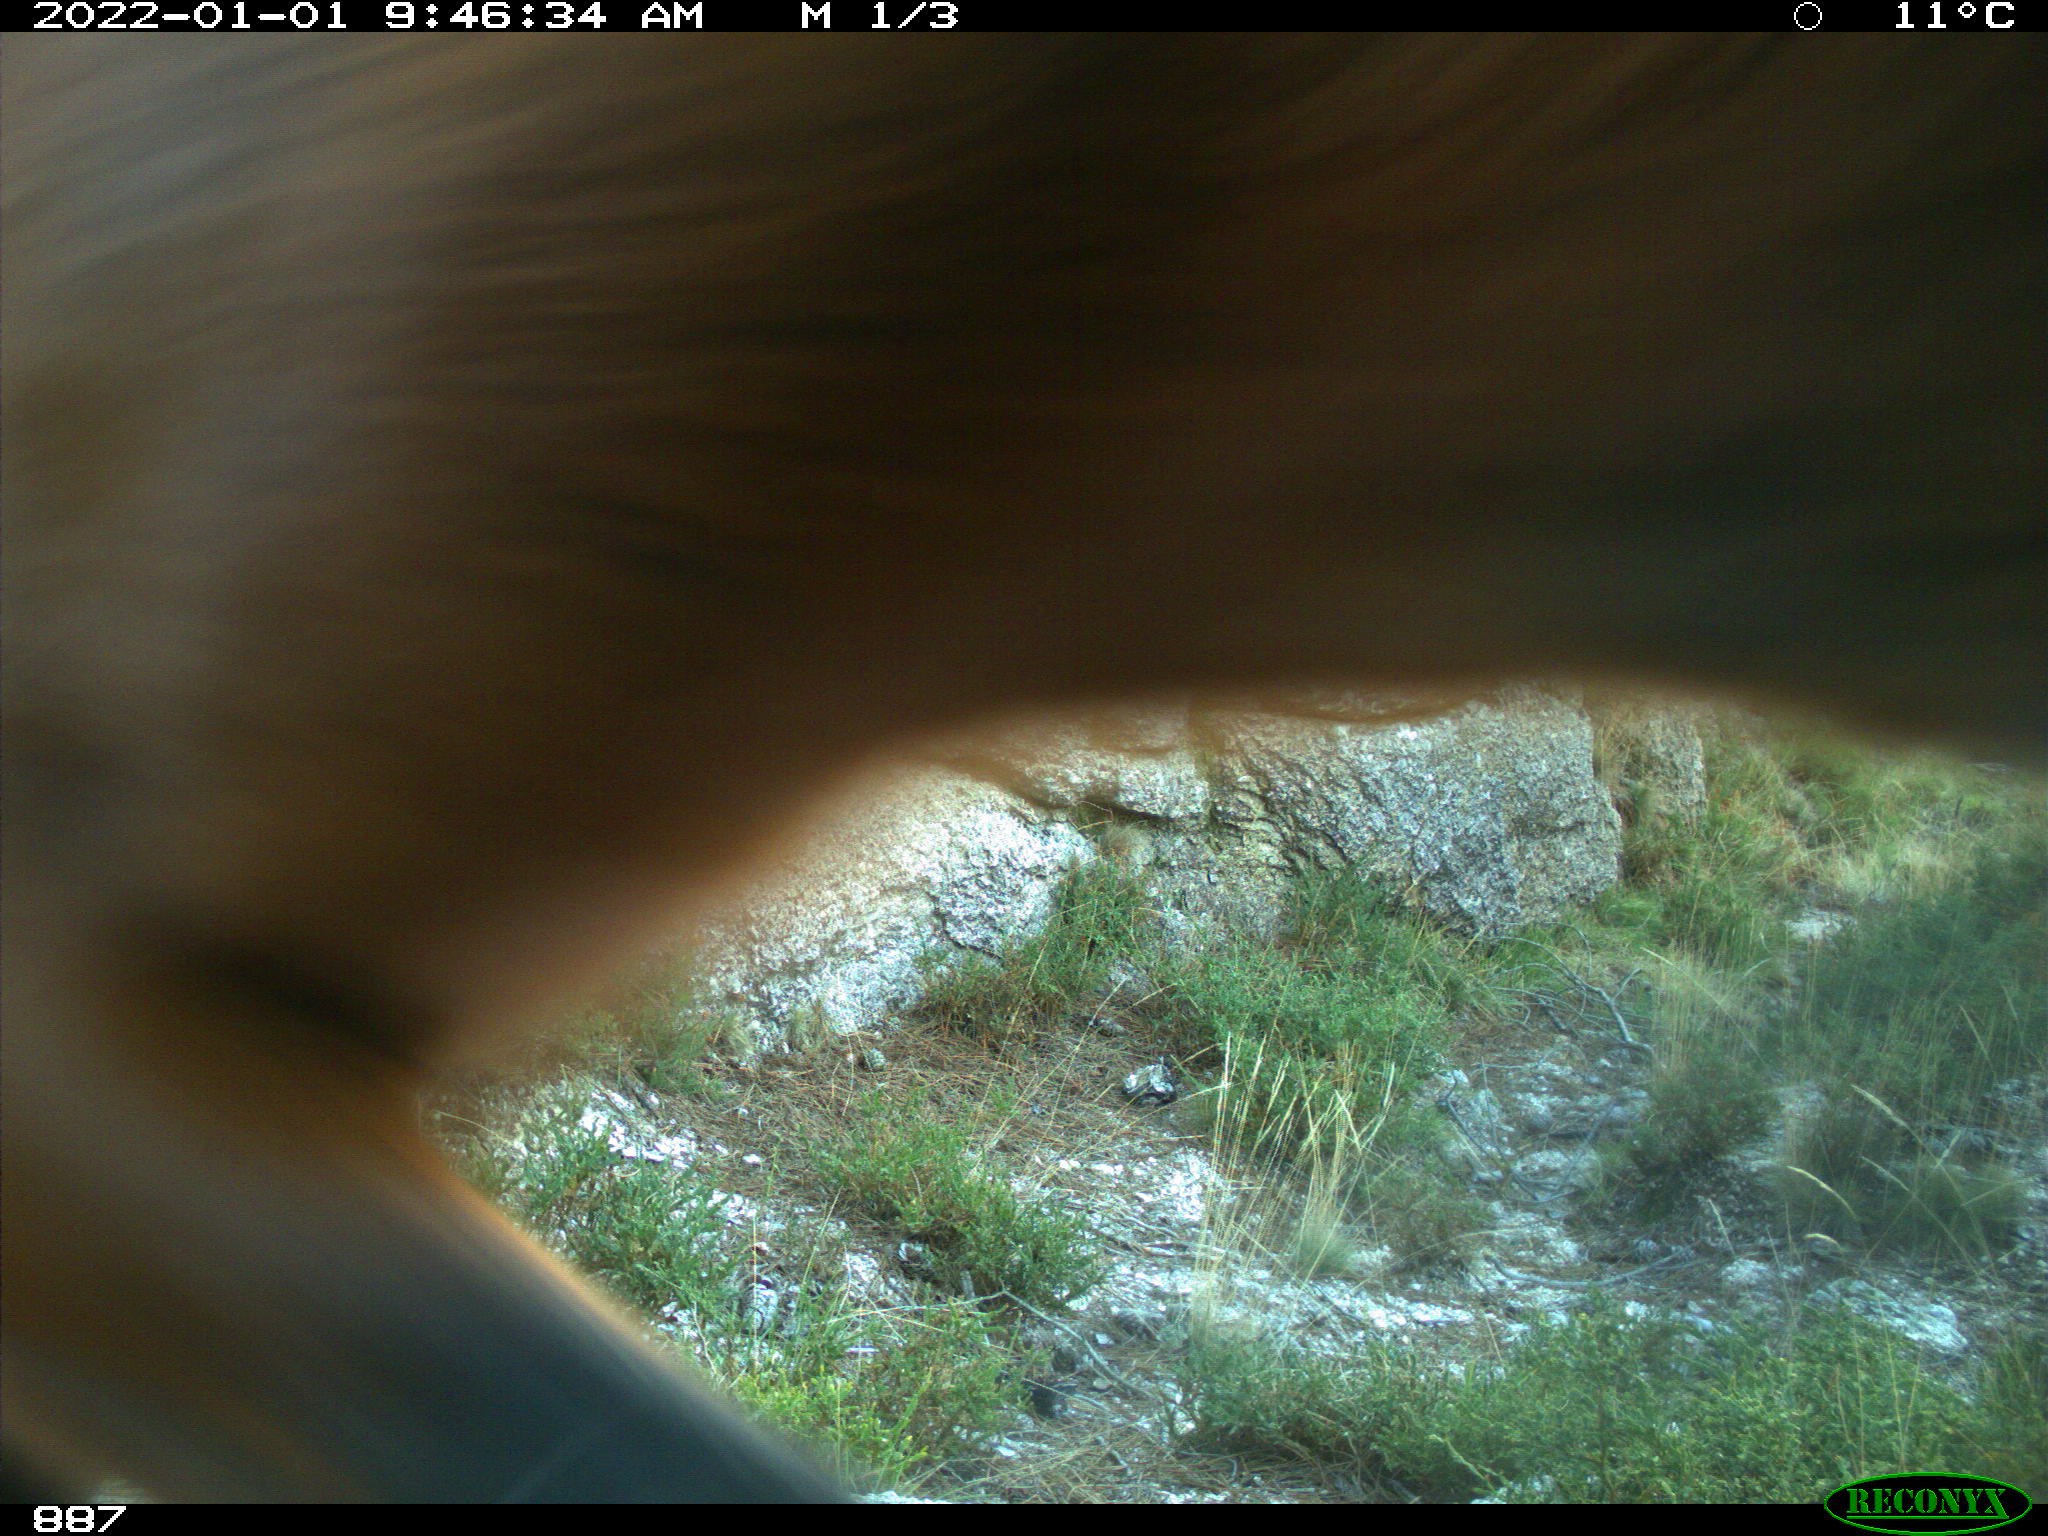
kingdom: Animalia
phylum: Chordata
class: Mammalia
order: Perissodactyla
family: Equidae
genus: Equus
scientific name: Equus caballus
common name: Horse
